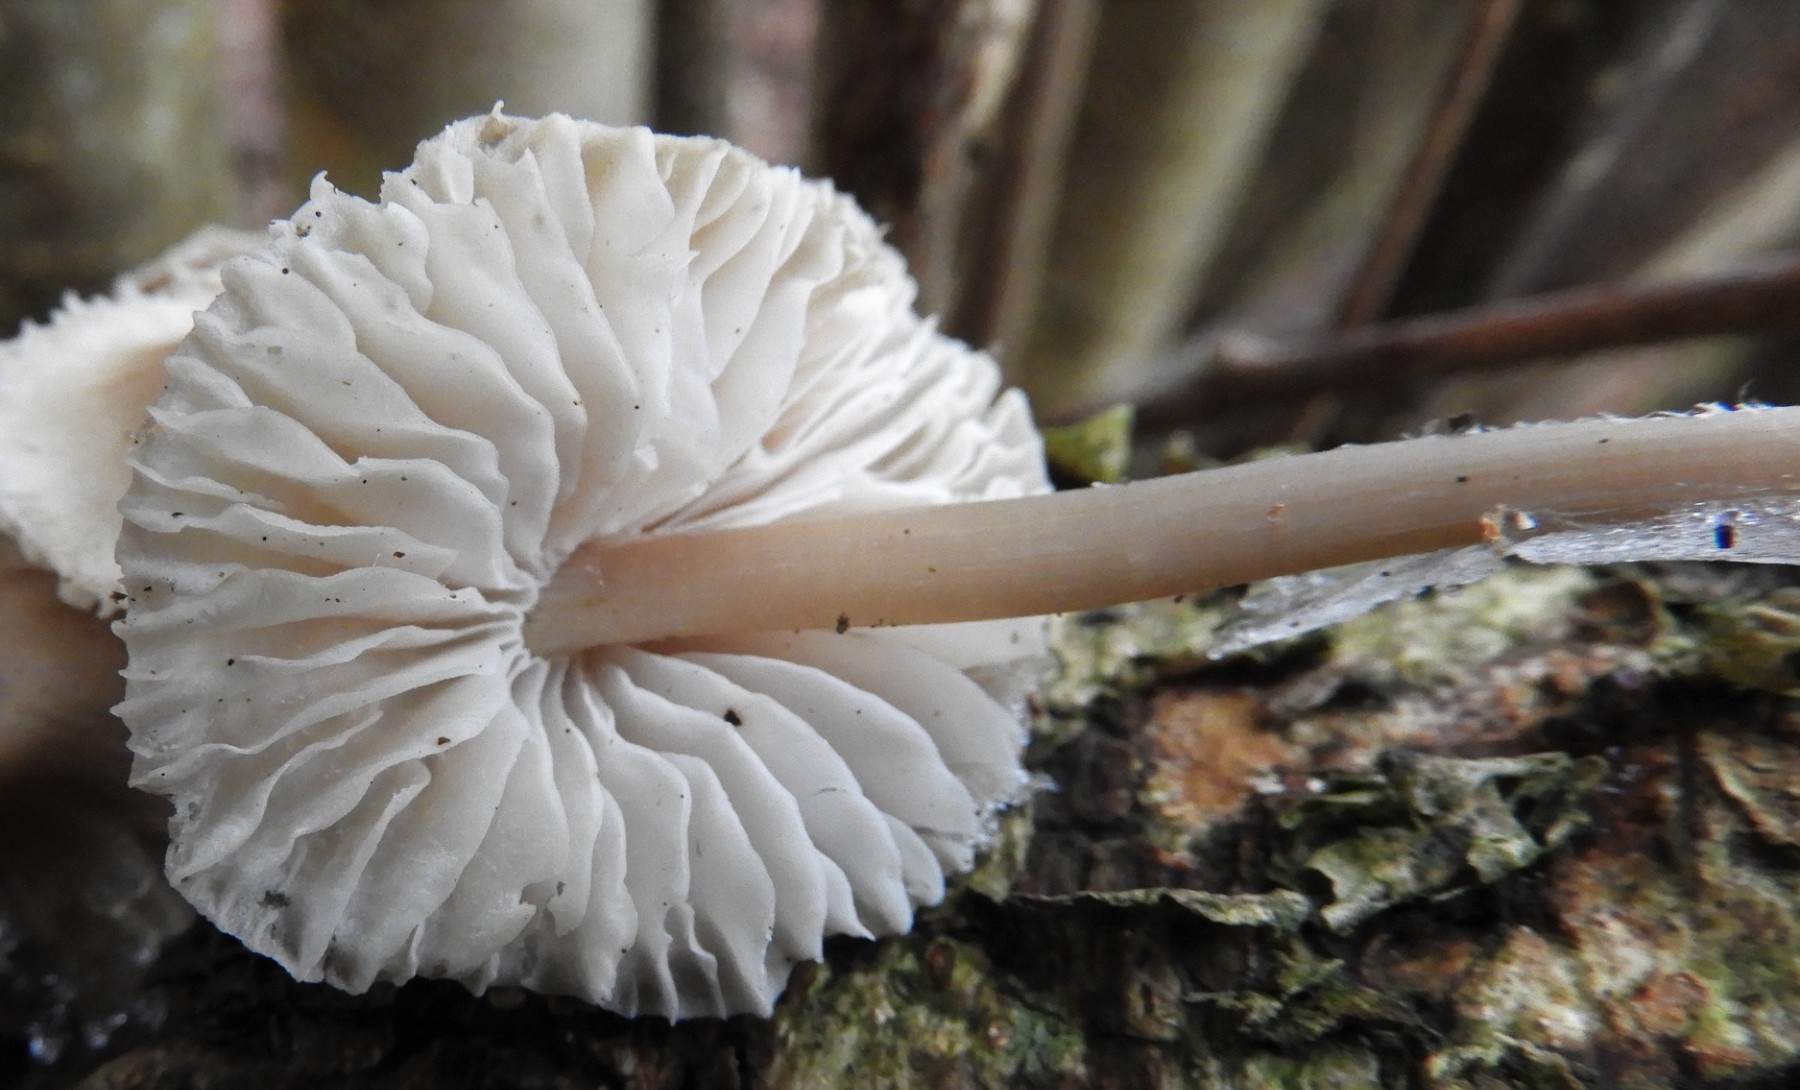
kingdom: Fungi
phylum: Basidiomycota
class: Agaricomycetes
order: Agaricales
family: Mycenaceae
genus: Mycena
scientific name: Mycena galericulata
